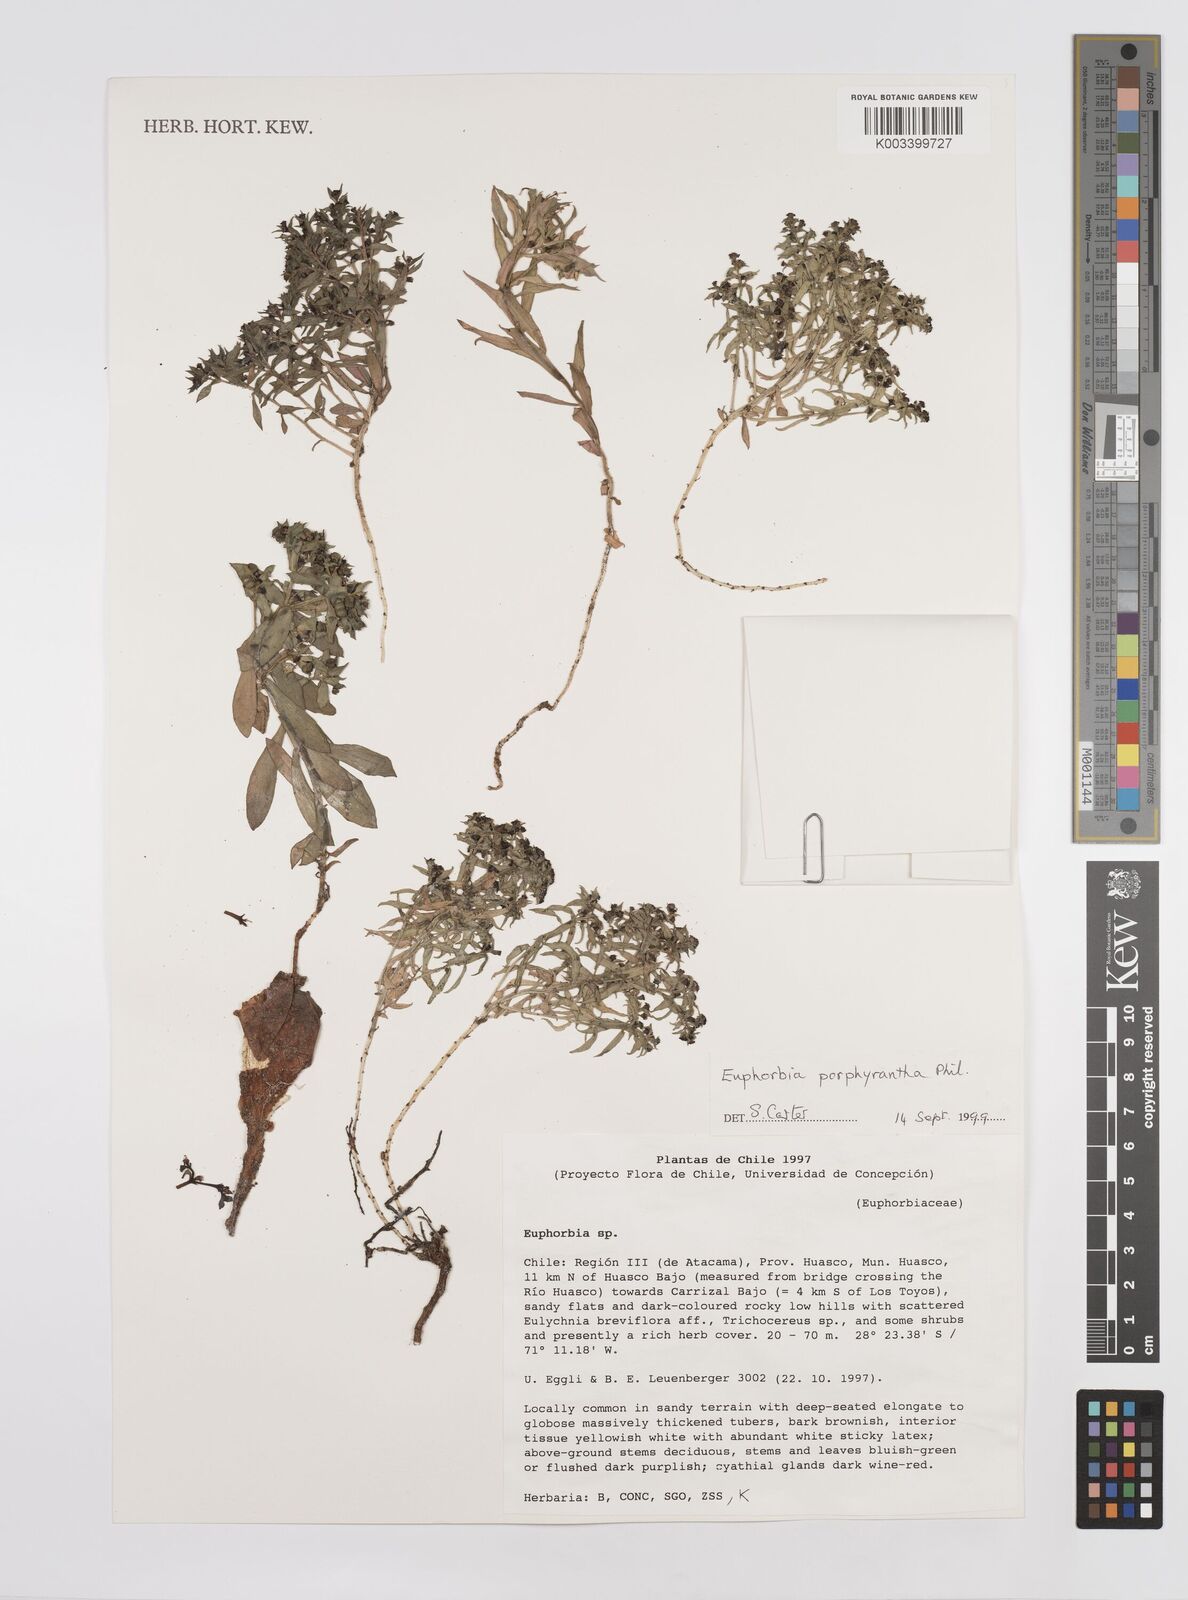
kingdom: Plantae
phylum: Tracheophyta
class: Magnoliopsida
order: Malpighiales
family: Euphorbiaceae
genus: Euphorbia
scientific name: Euphorbia
